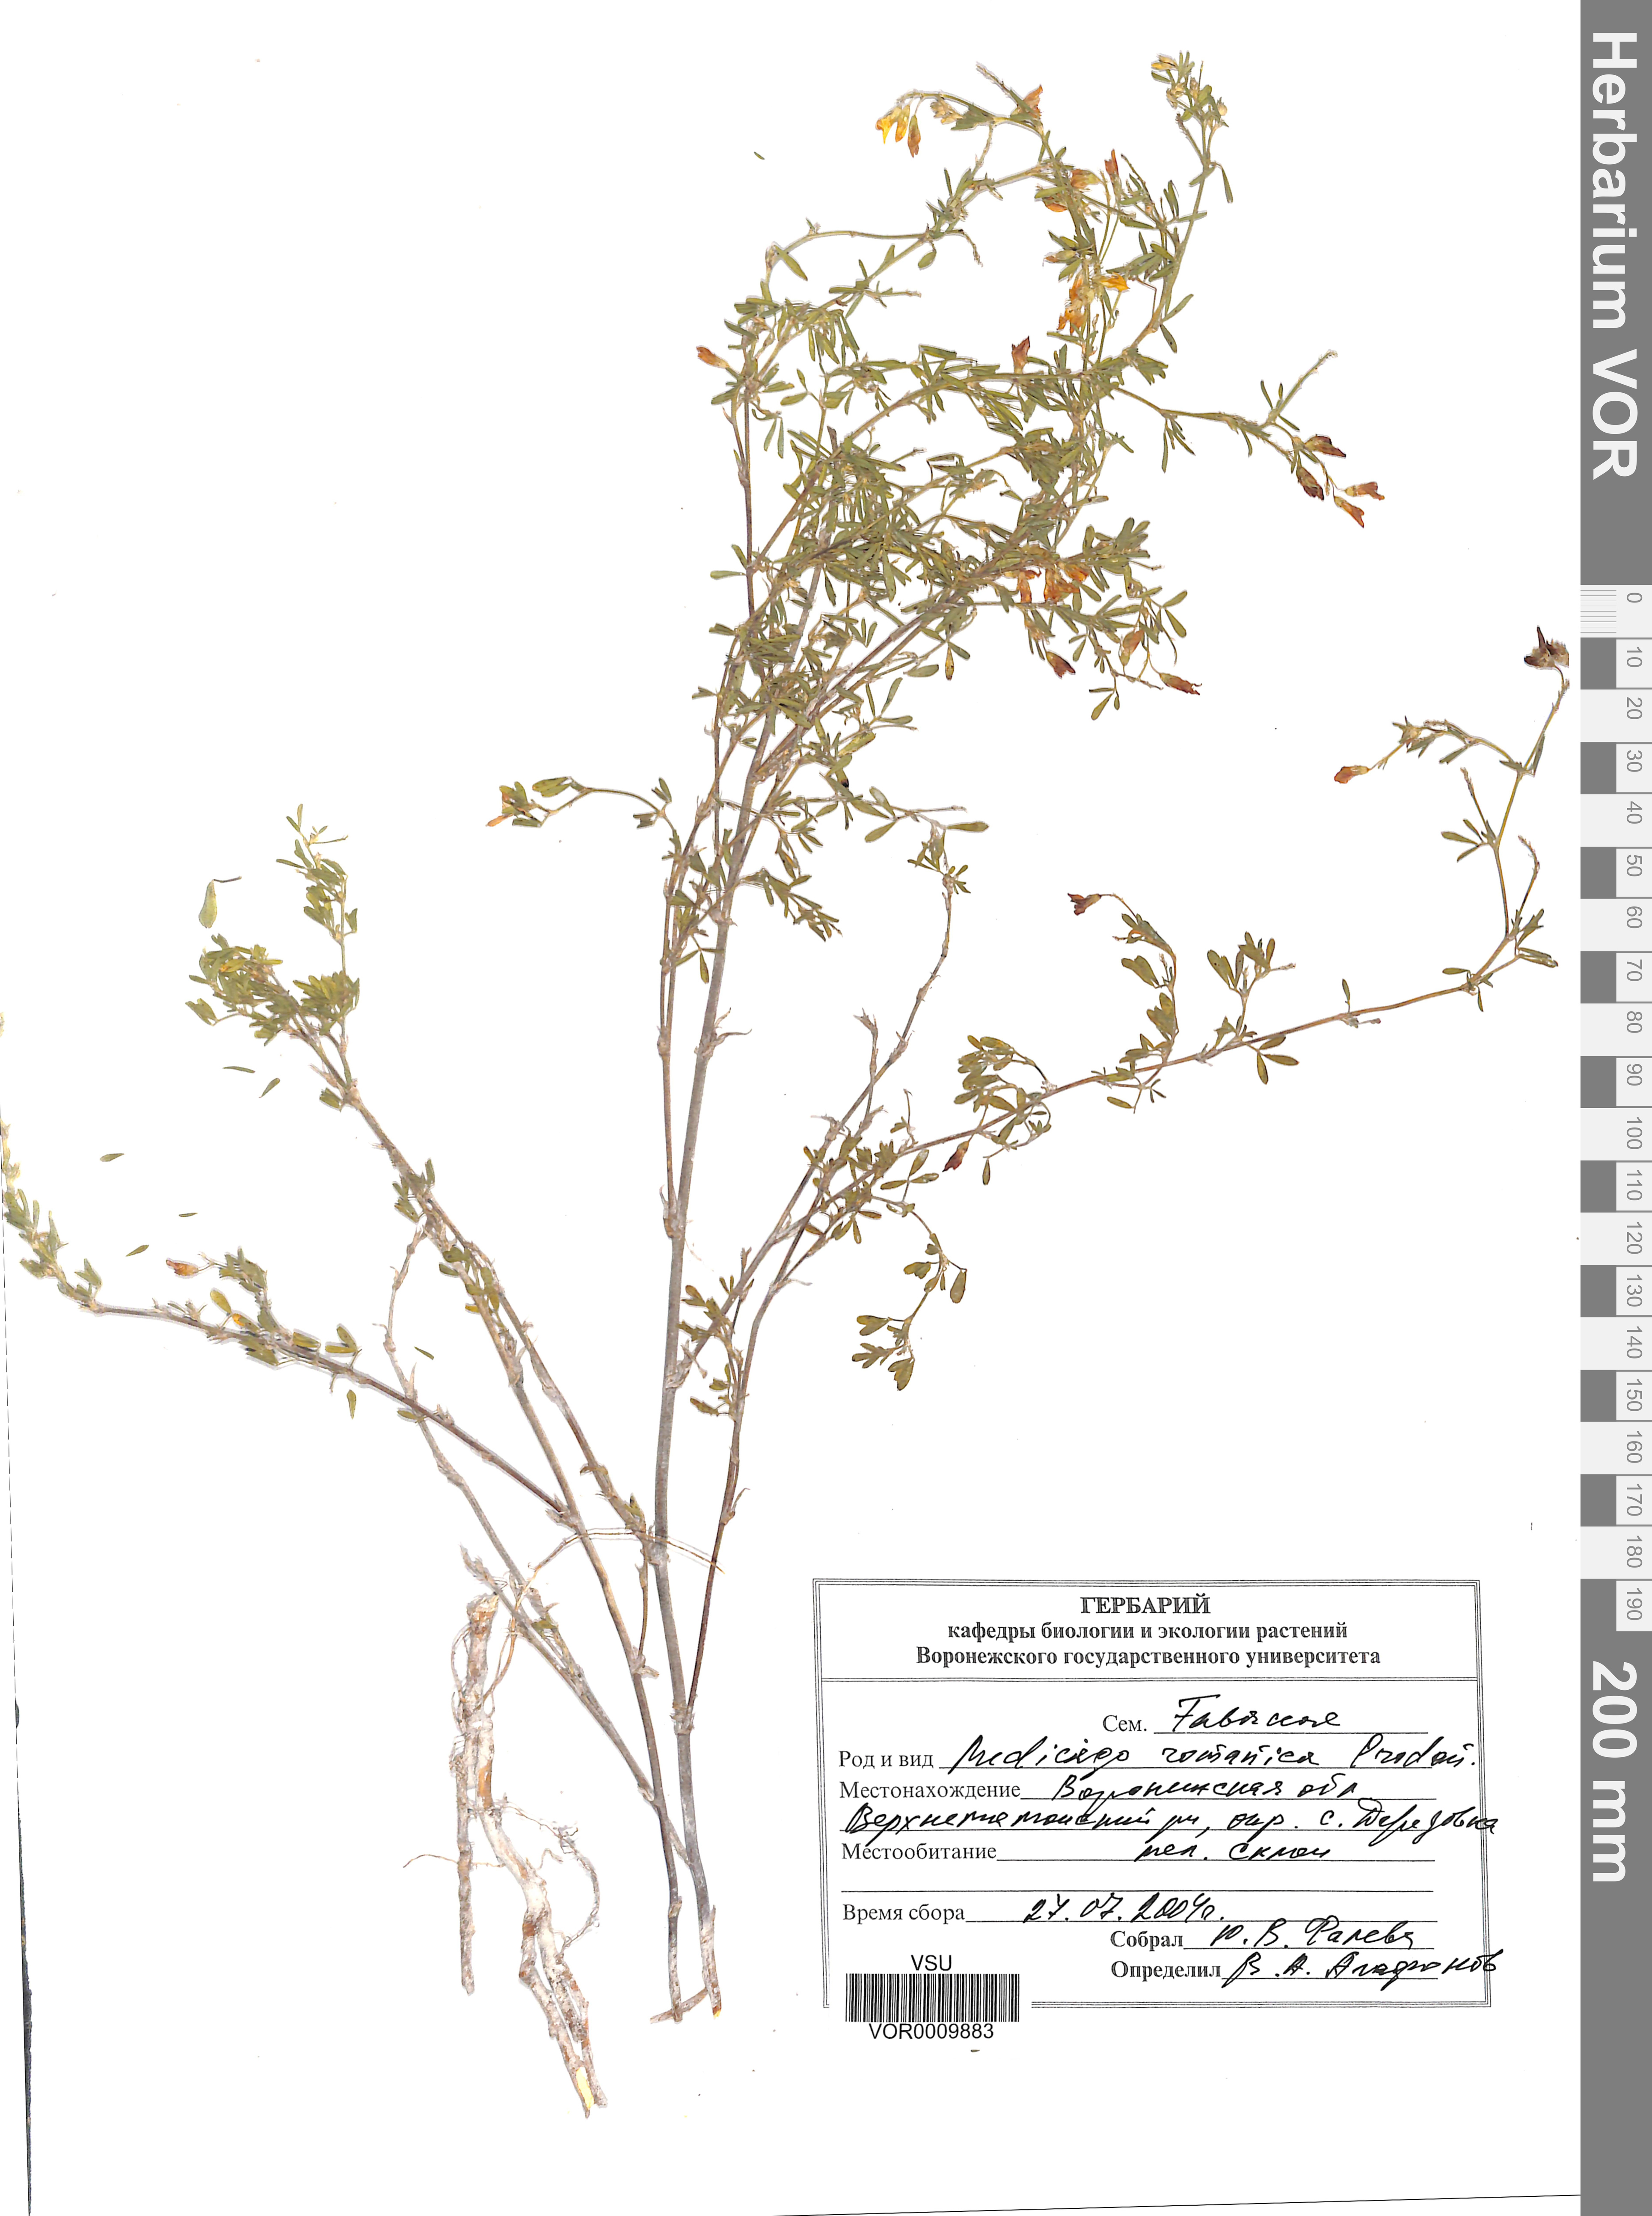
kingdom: Plantae
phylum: Tracheophyta
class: Magnoliopsida
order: Fabales
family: Fabaceae
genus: Medicago
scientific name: Medicago falcata
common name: Sickle medick
